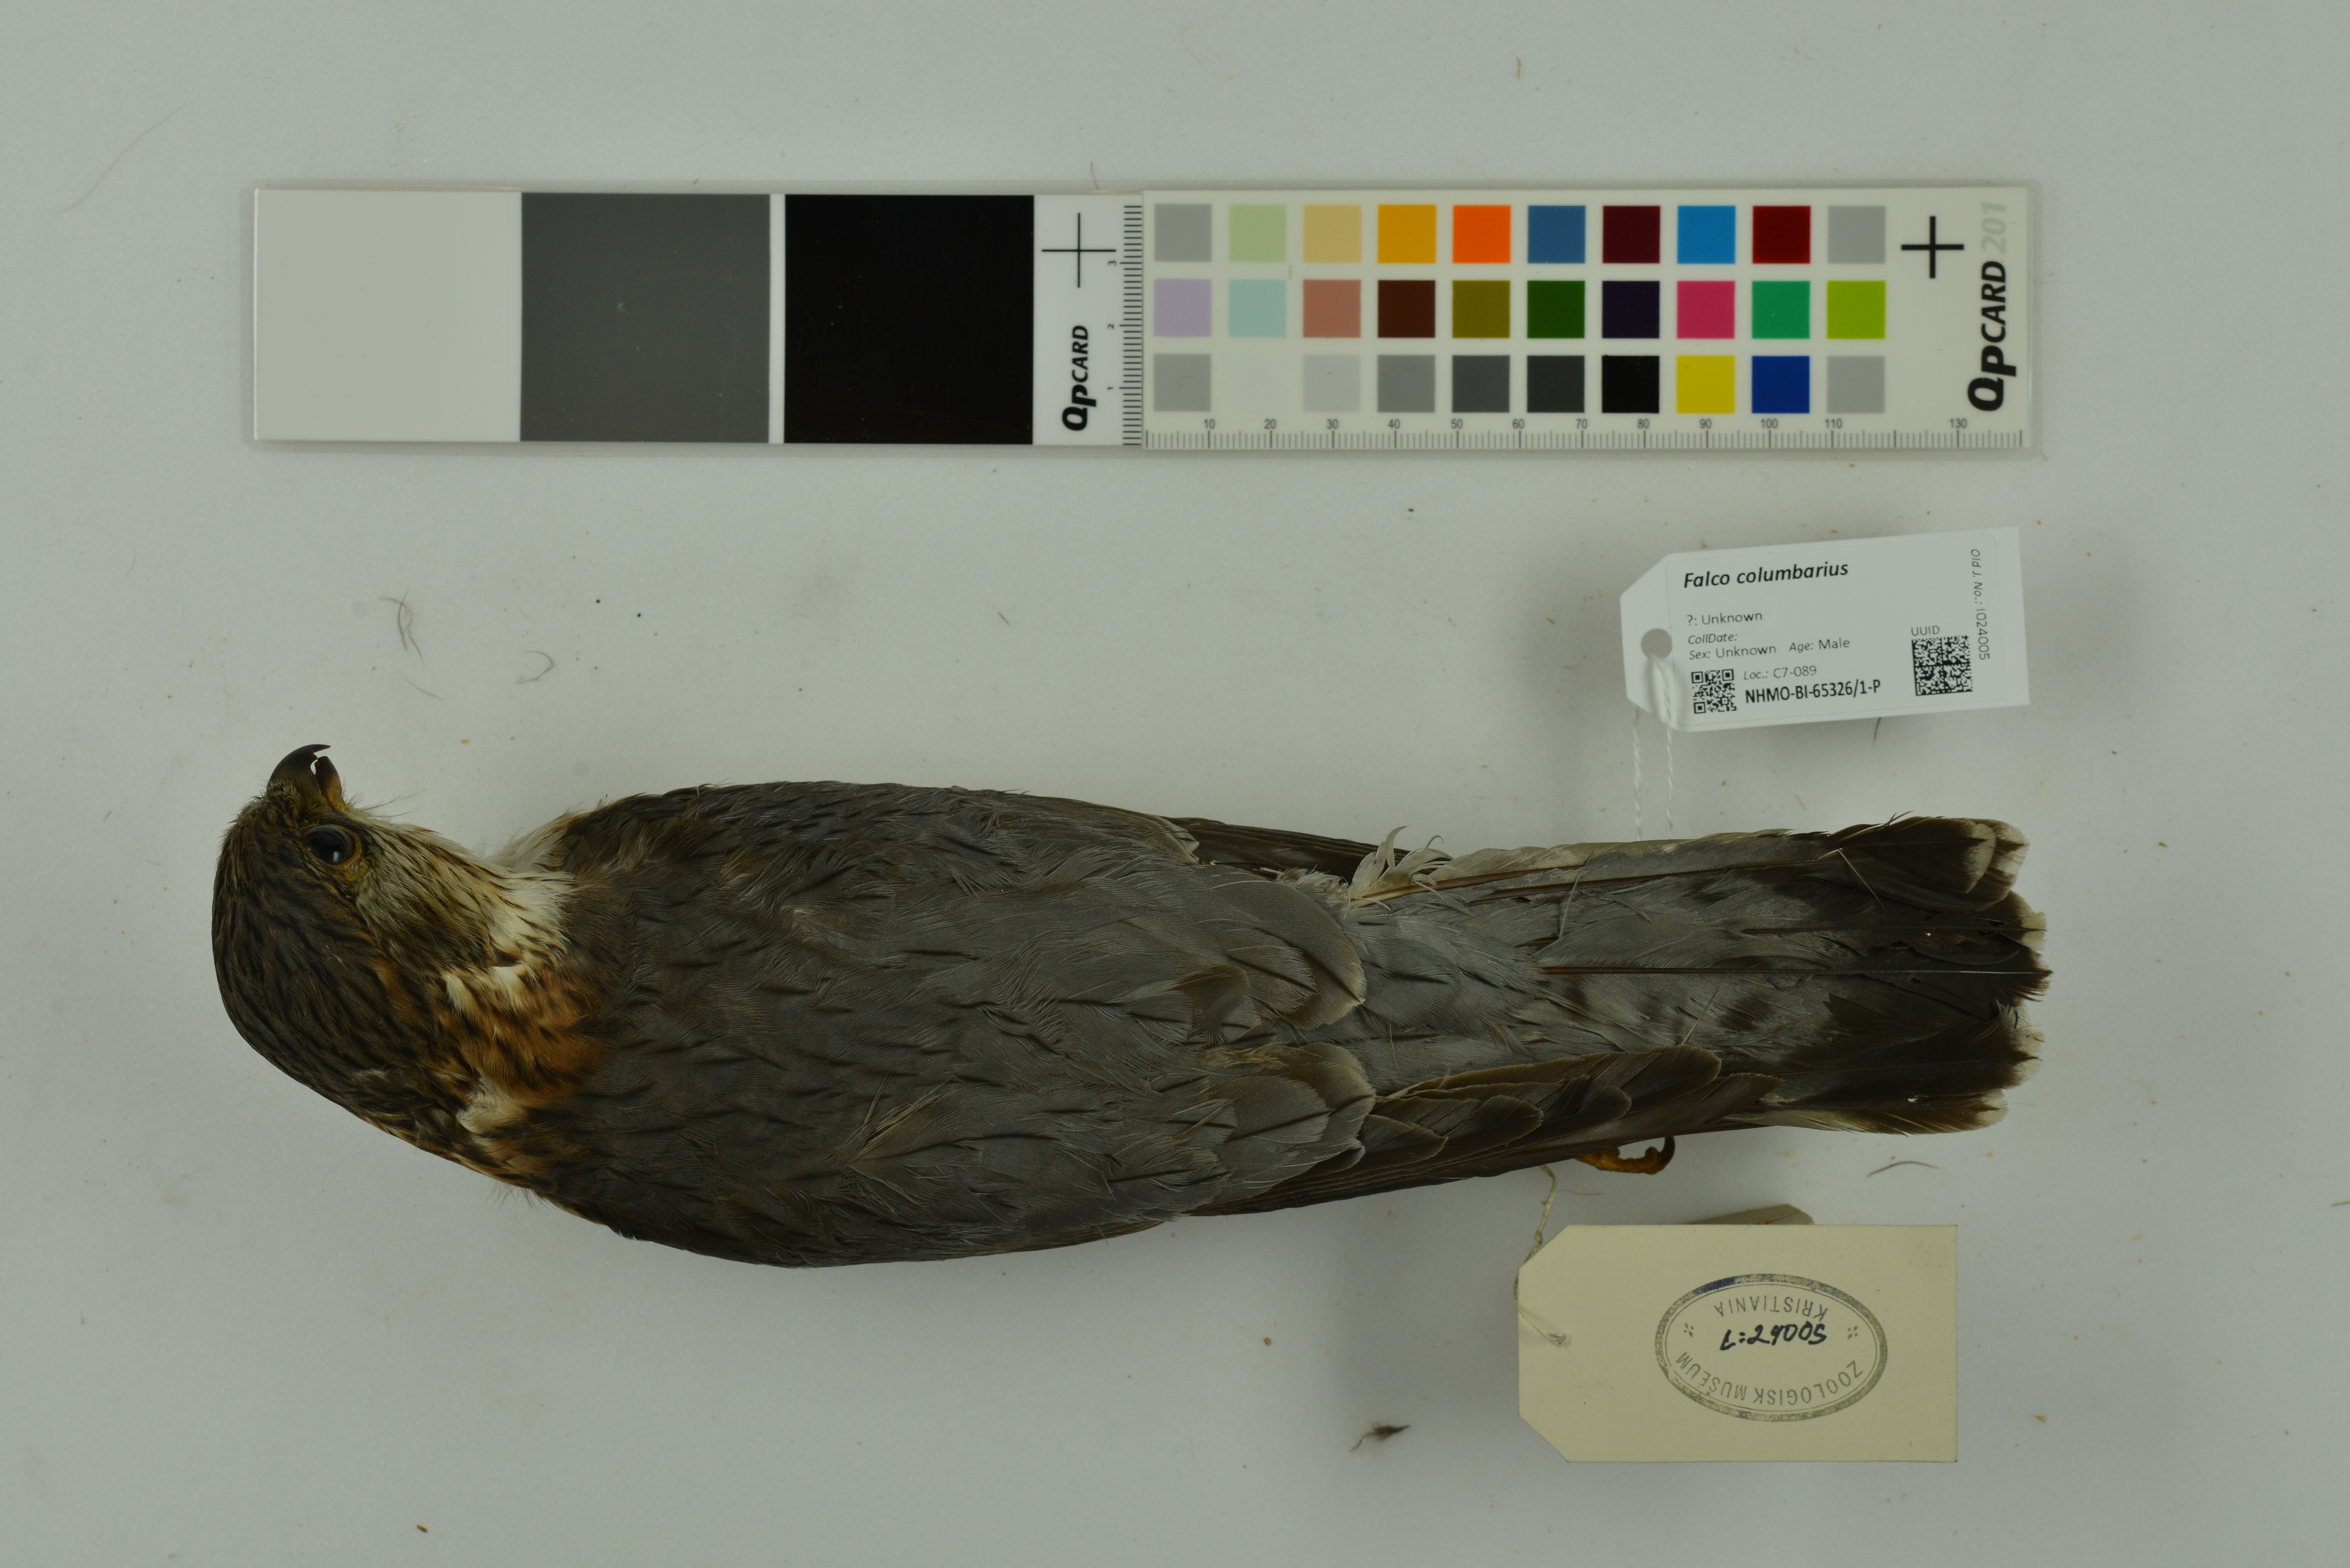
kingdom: Animalia
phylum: Chordata
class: Aves
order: Falconiformes
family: Falconidae
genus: Falco
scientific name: Falco columbarius
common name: Merlin
